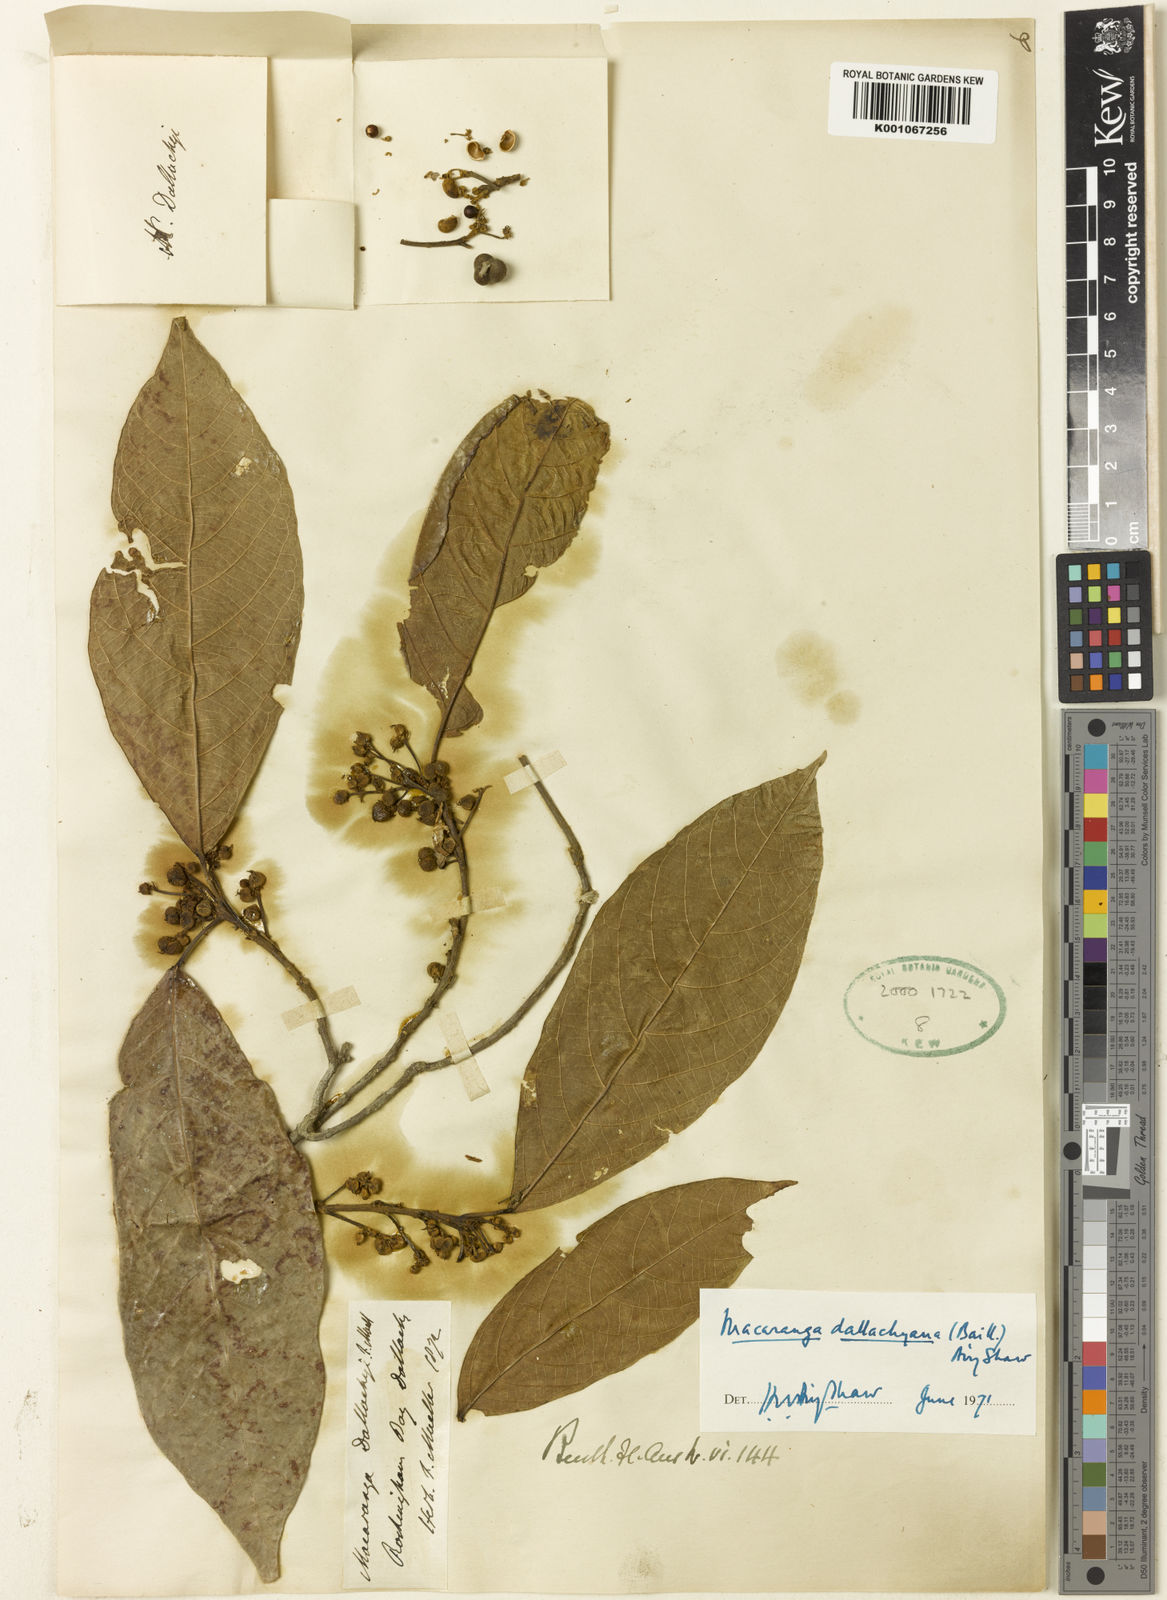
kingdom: Plantae
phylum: Tracheophyta
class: Magnoliopsida
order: Malpighiales
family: Euphorbiaceae
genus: Macaranga
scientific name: Macaranga dallachyana
